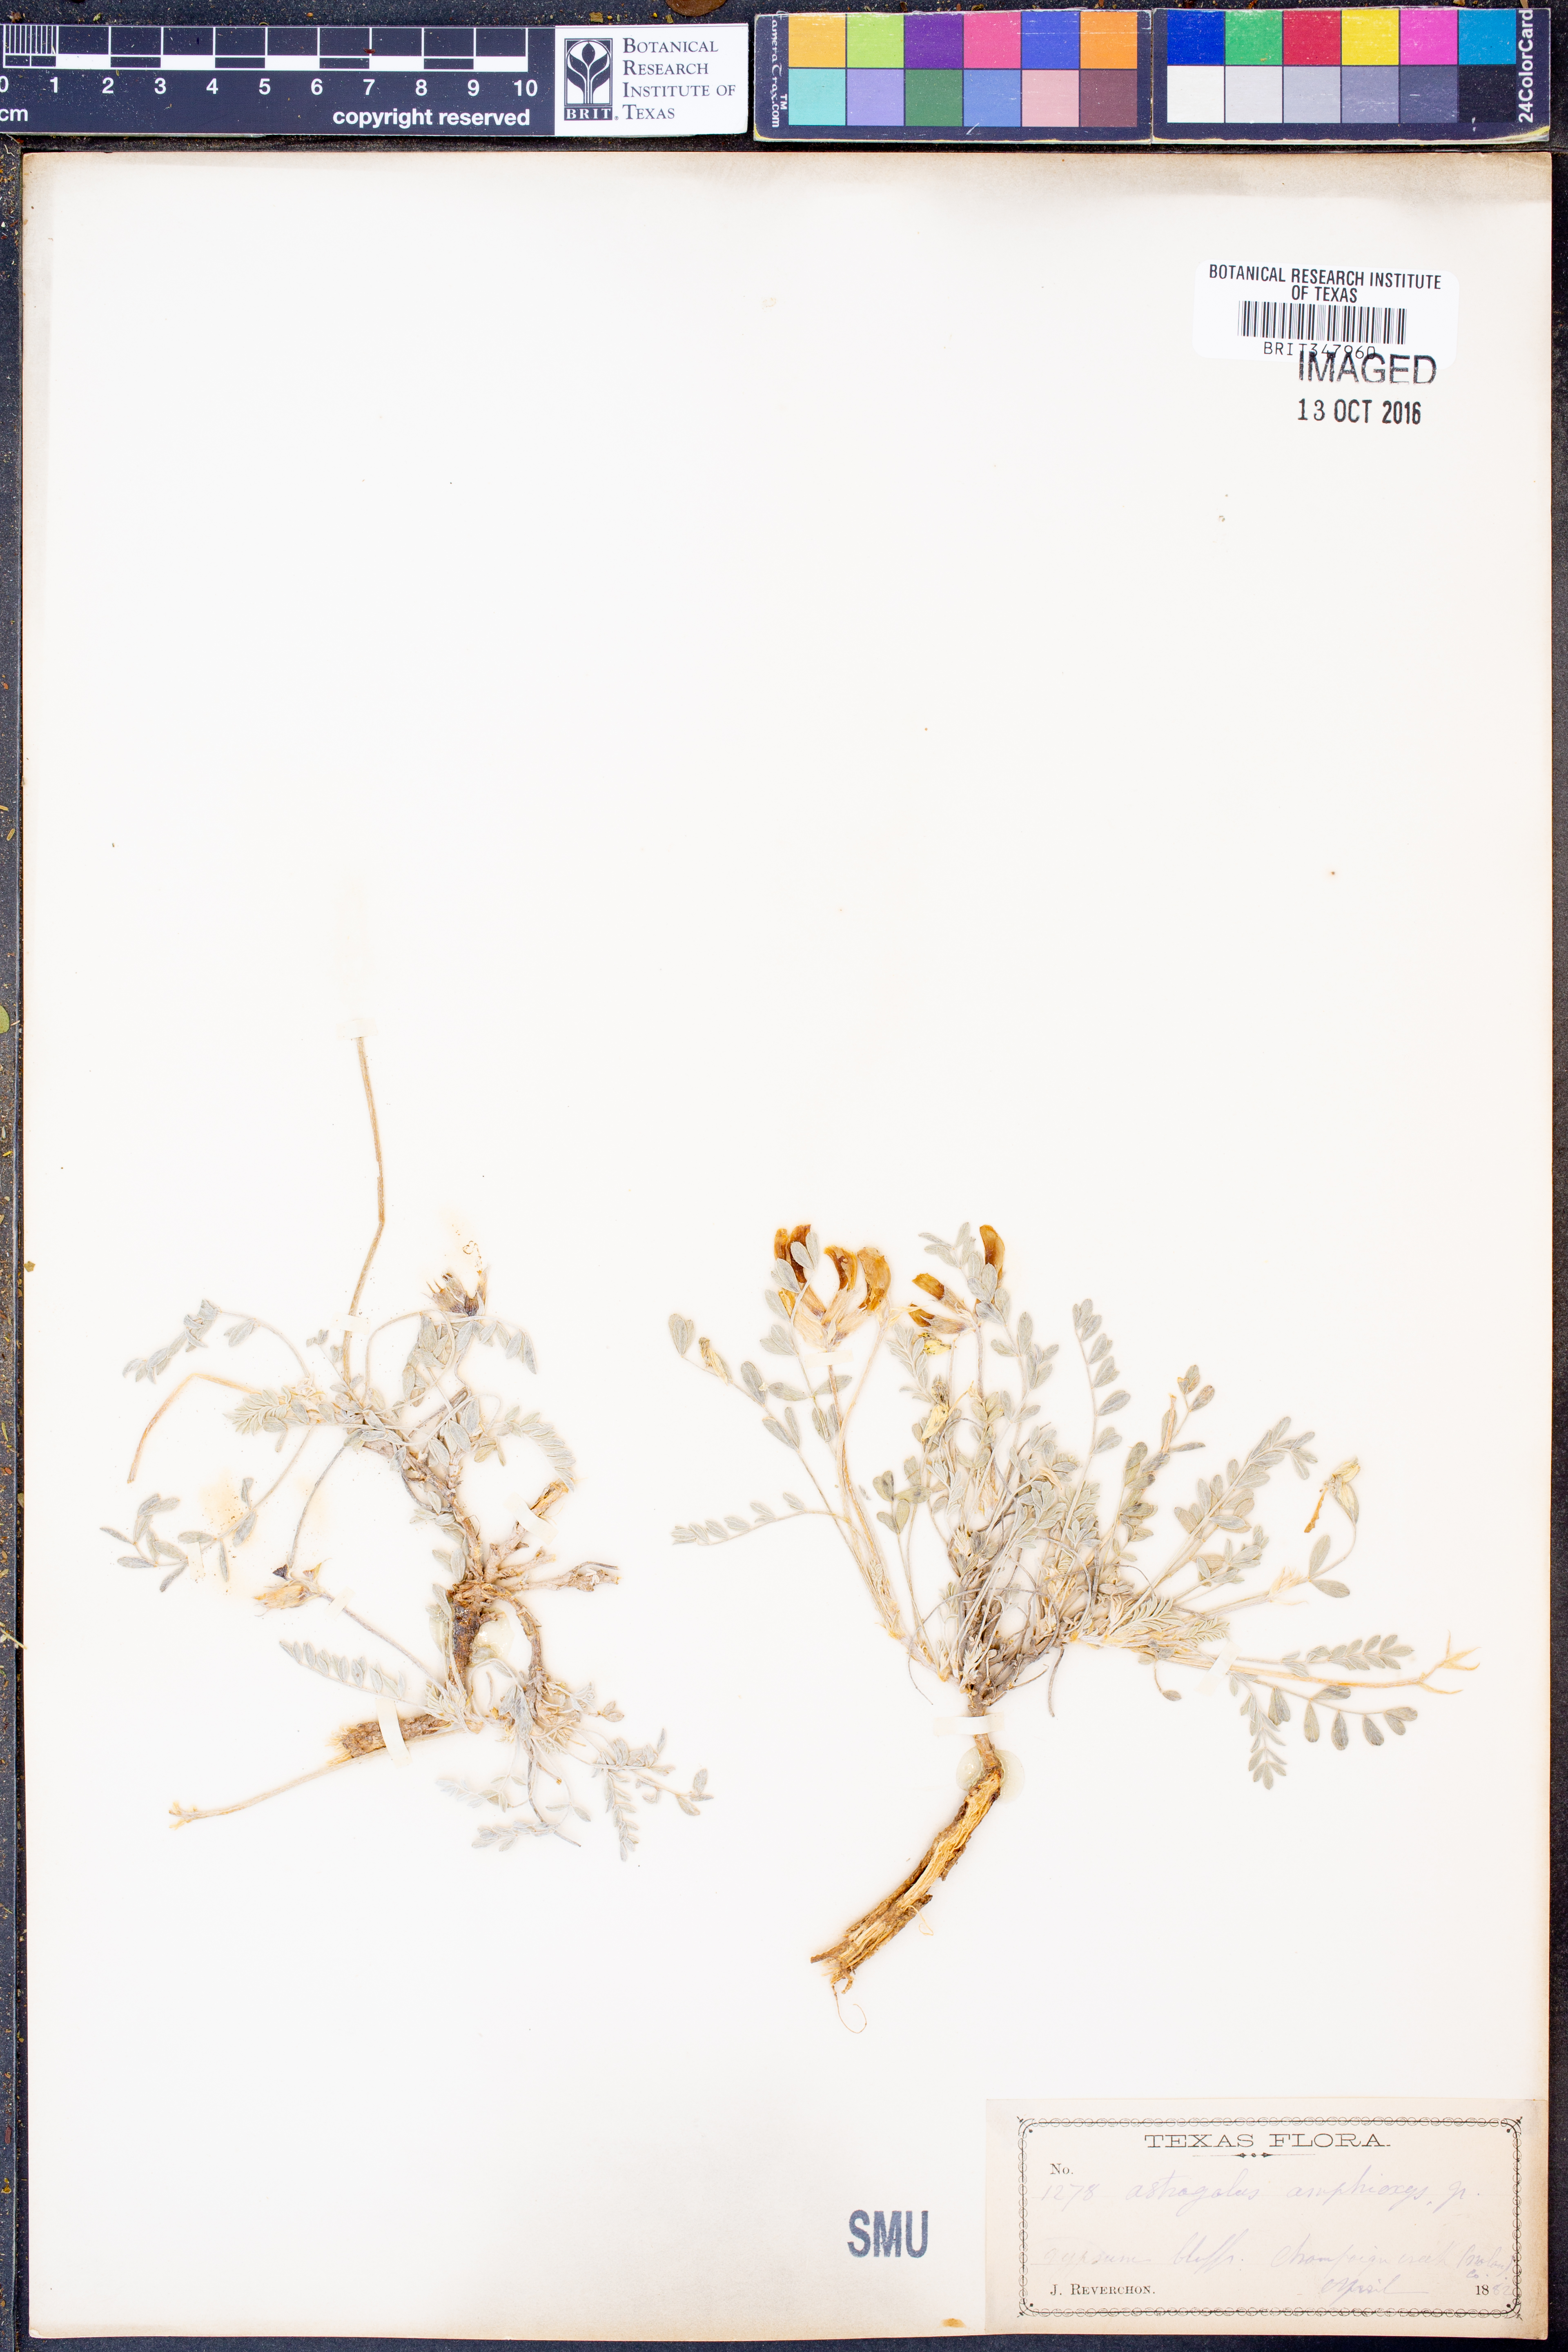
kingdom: Plantae
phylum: Tracheophyta
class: Magnoliopsida
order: Fabales
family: Fabaceae
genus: Astragalus
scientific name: Astragalus amphioxys
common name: Crescent milk-vetch
